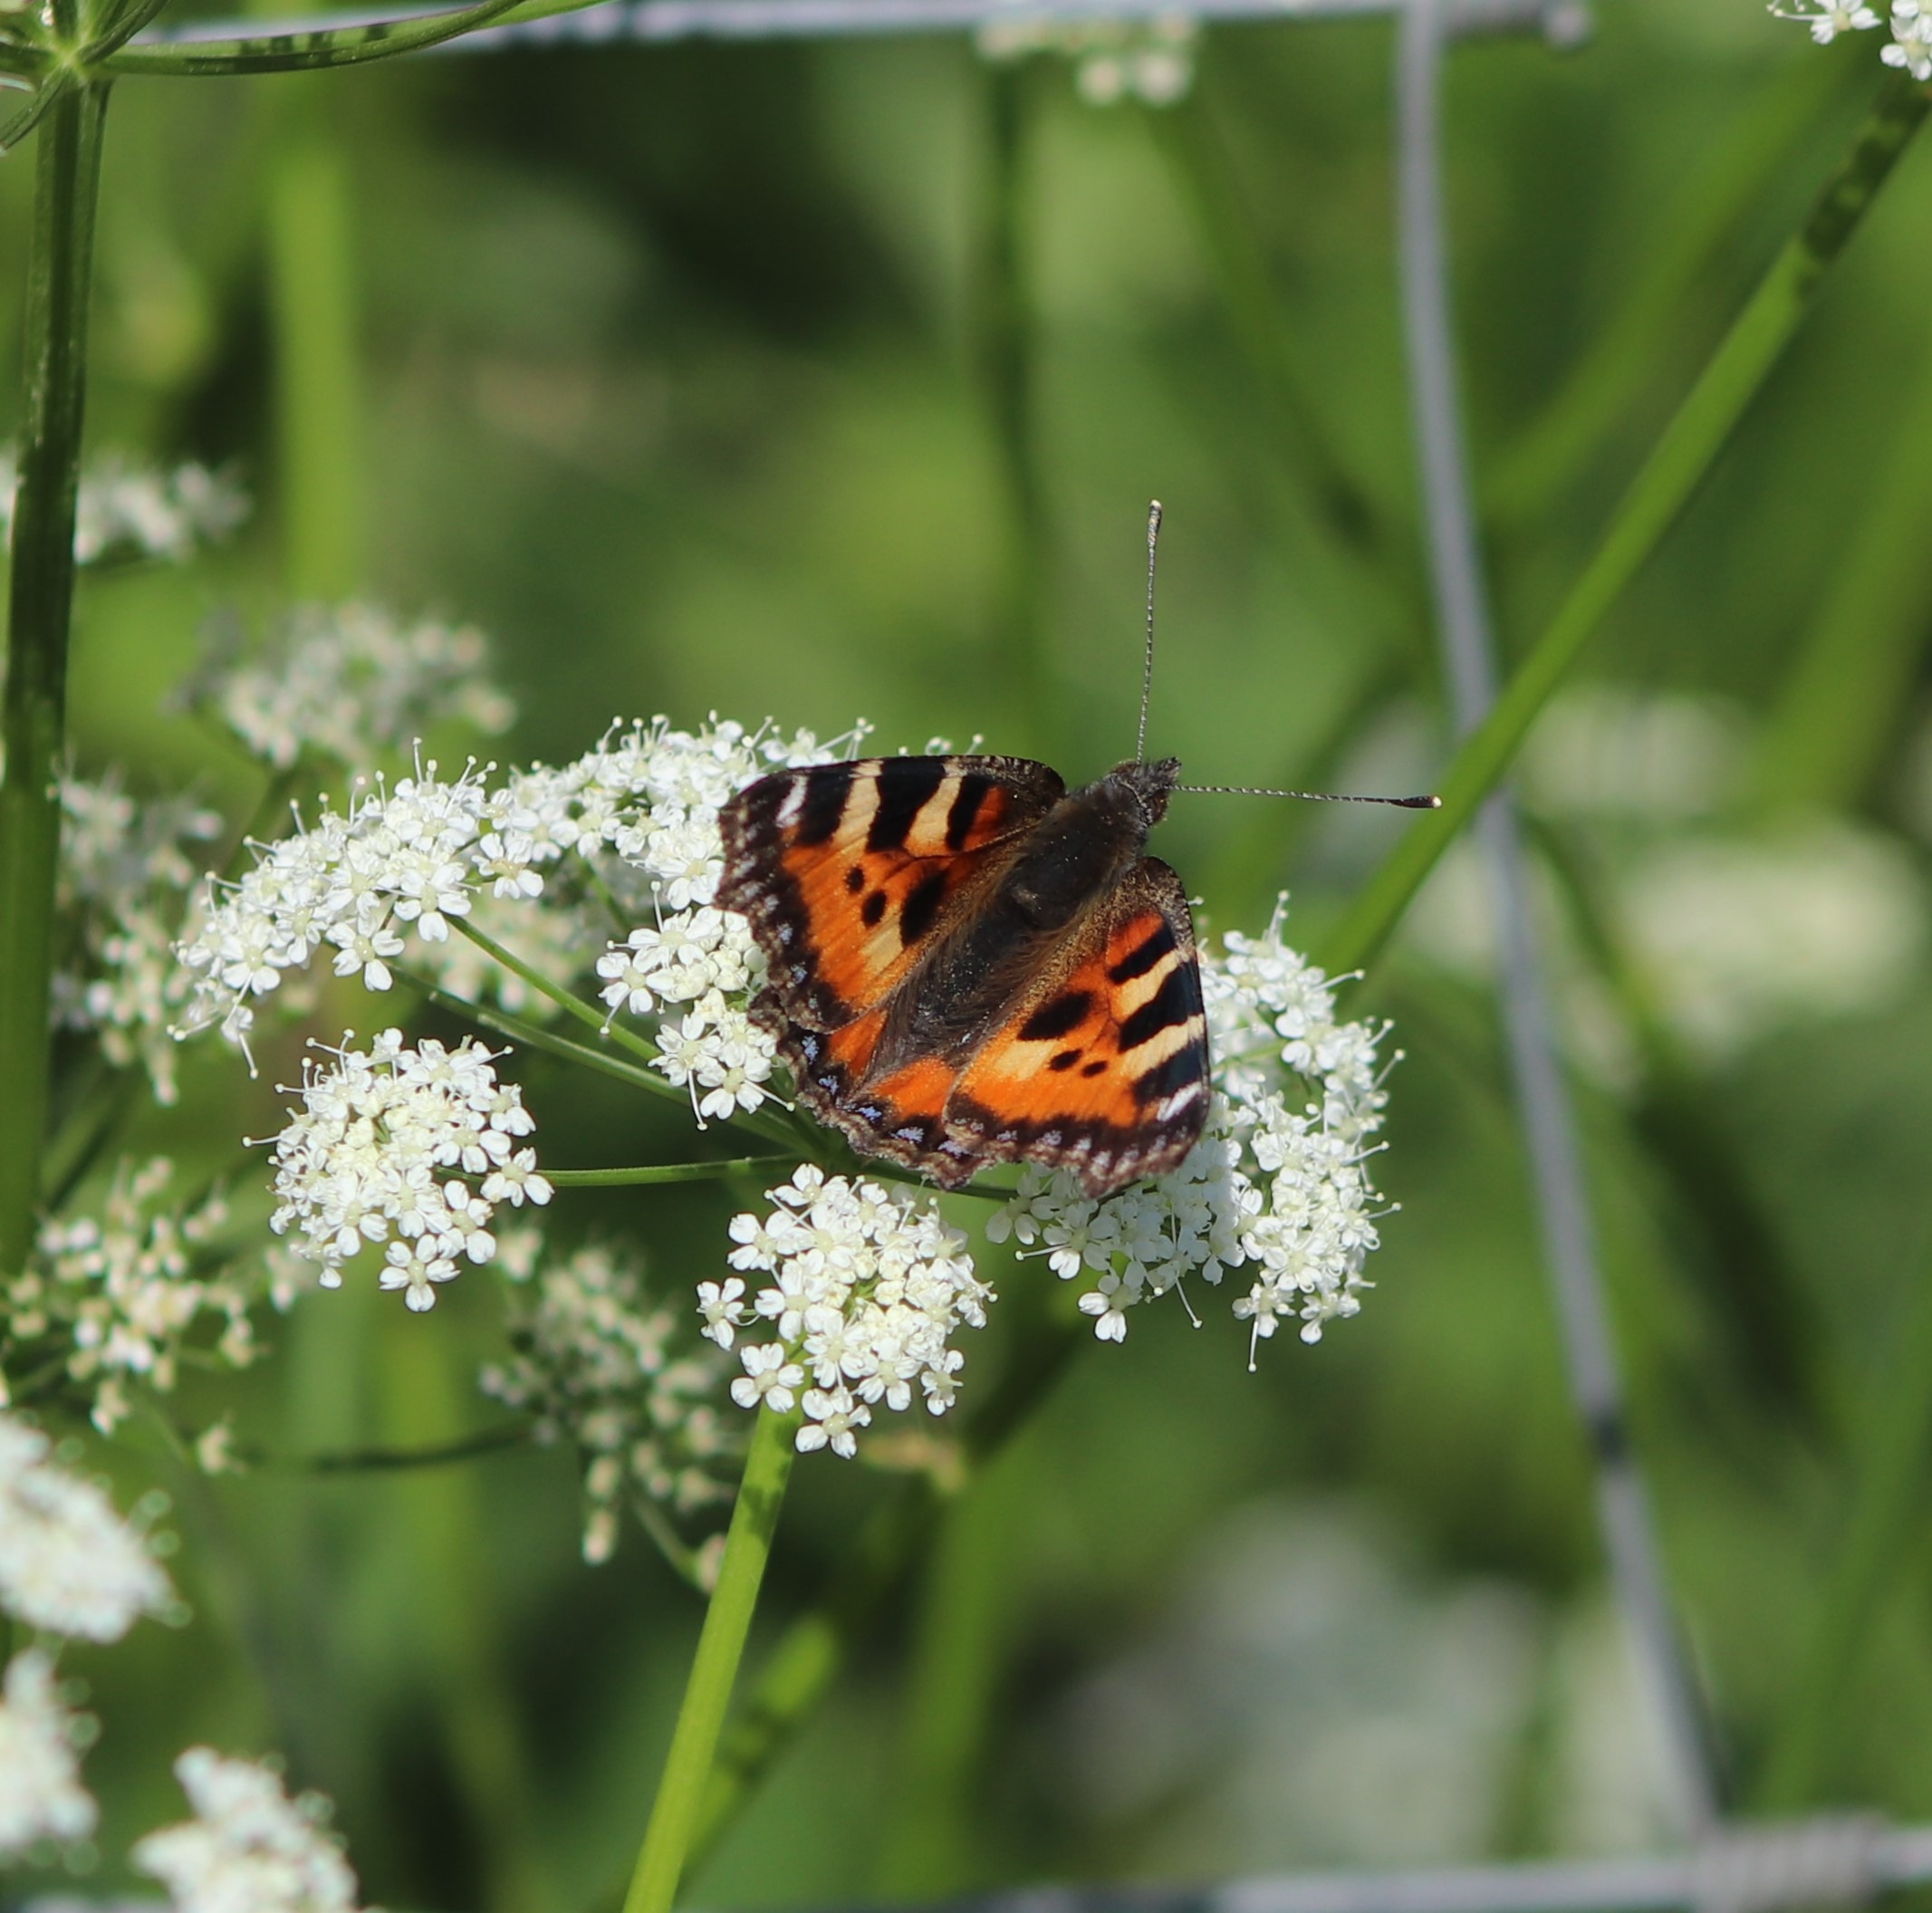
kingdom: Animalia
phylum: Arthropoda
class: Insecta
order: Lepidoptera
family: Nymphalidae
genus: Aglais
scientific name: Aglais urticae
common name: Nældens takvinge
